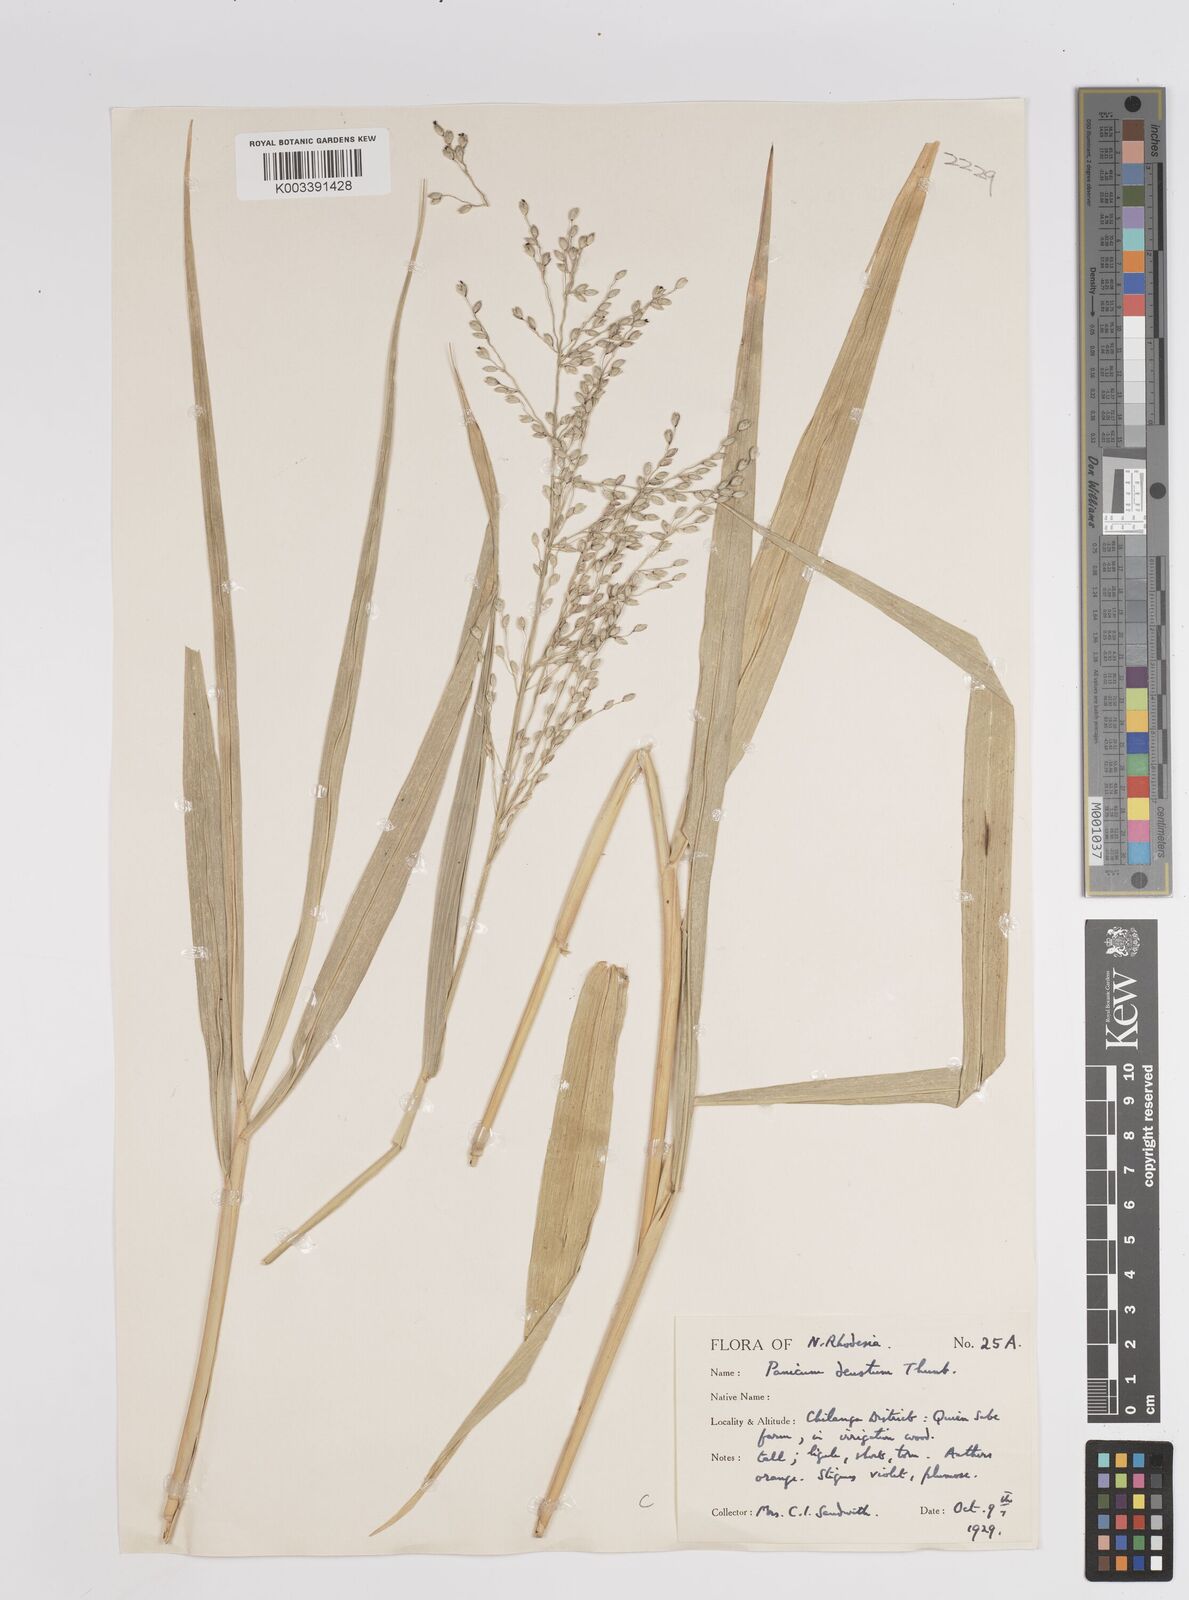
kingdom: Plantae
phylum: Tracheophyta
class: Liliopsida
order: Poales
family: Poaceae
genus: Panicum
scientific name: Panicum deustum
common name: Reed panicum
